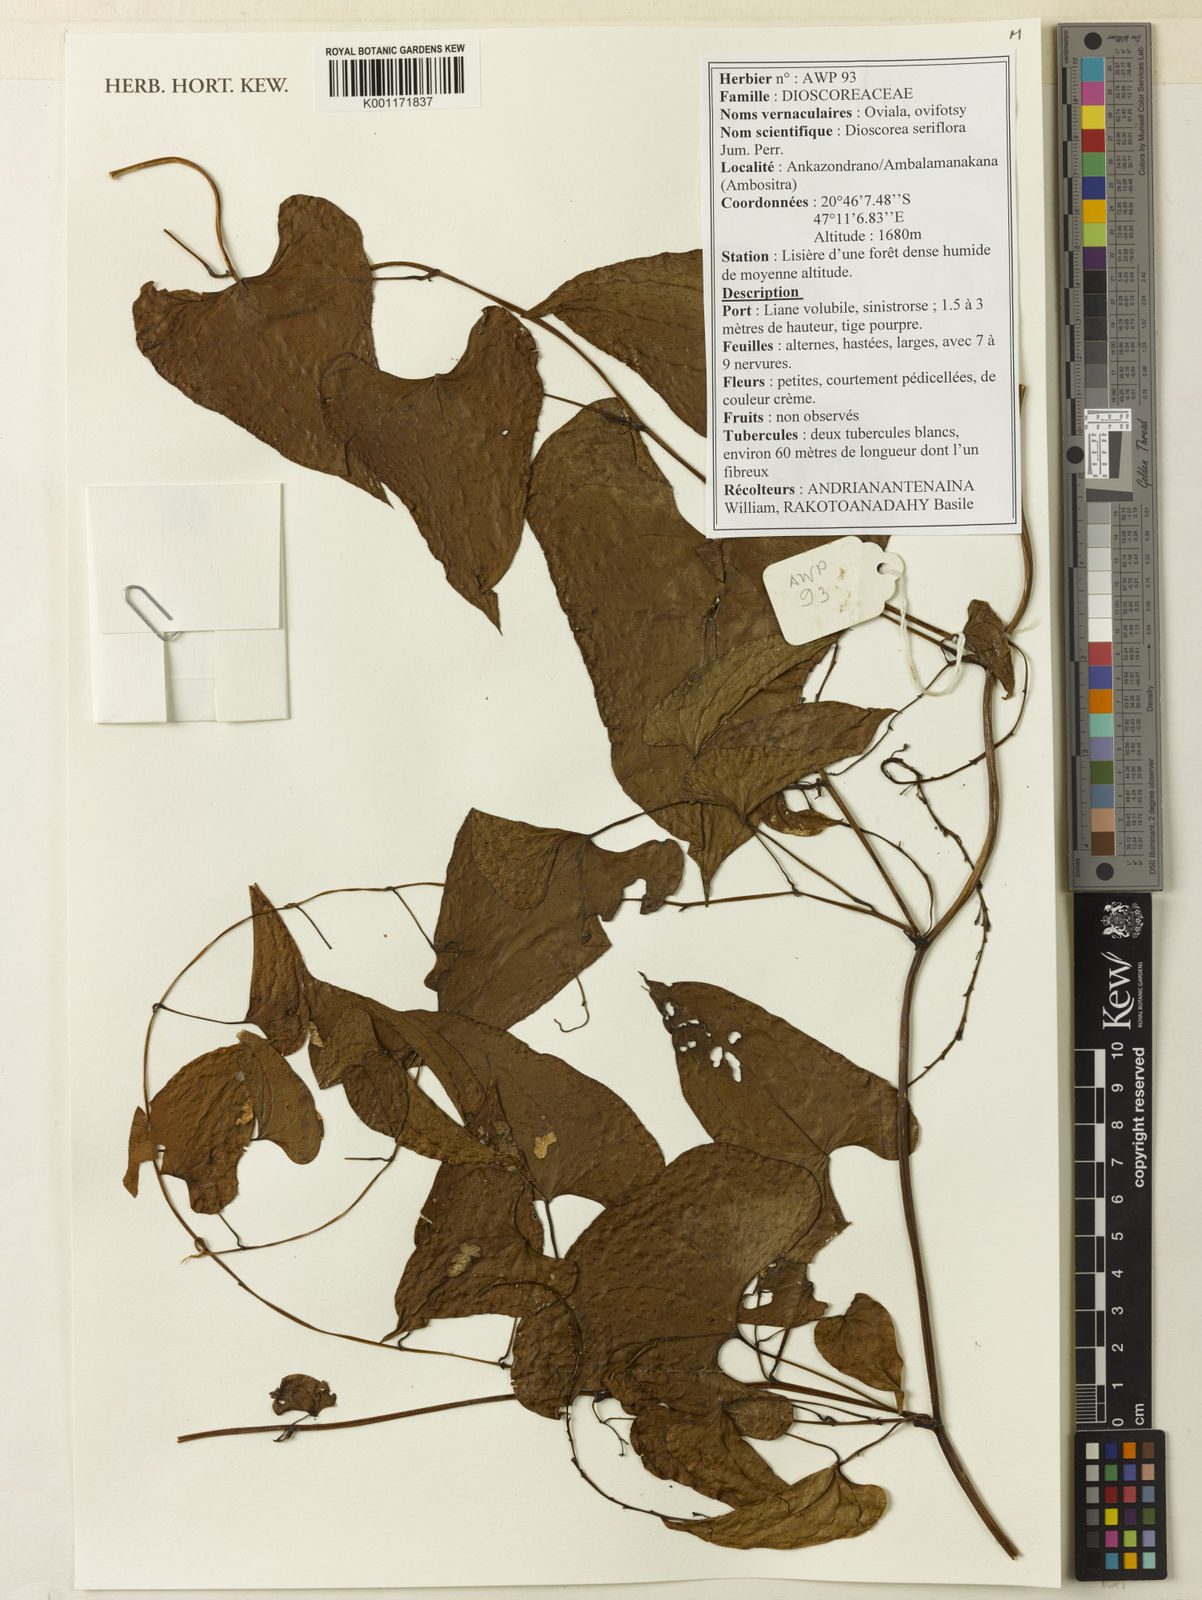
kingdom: Plantae
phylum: Tracheophyta
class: Liliopsida
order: Dioscoreales
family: Dioscoreaceae
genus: Dioscorea
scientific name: Dioscorea seriflora
